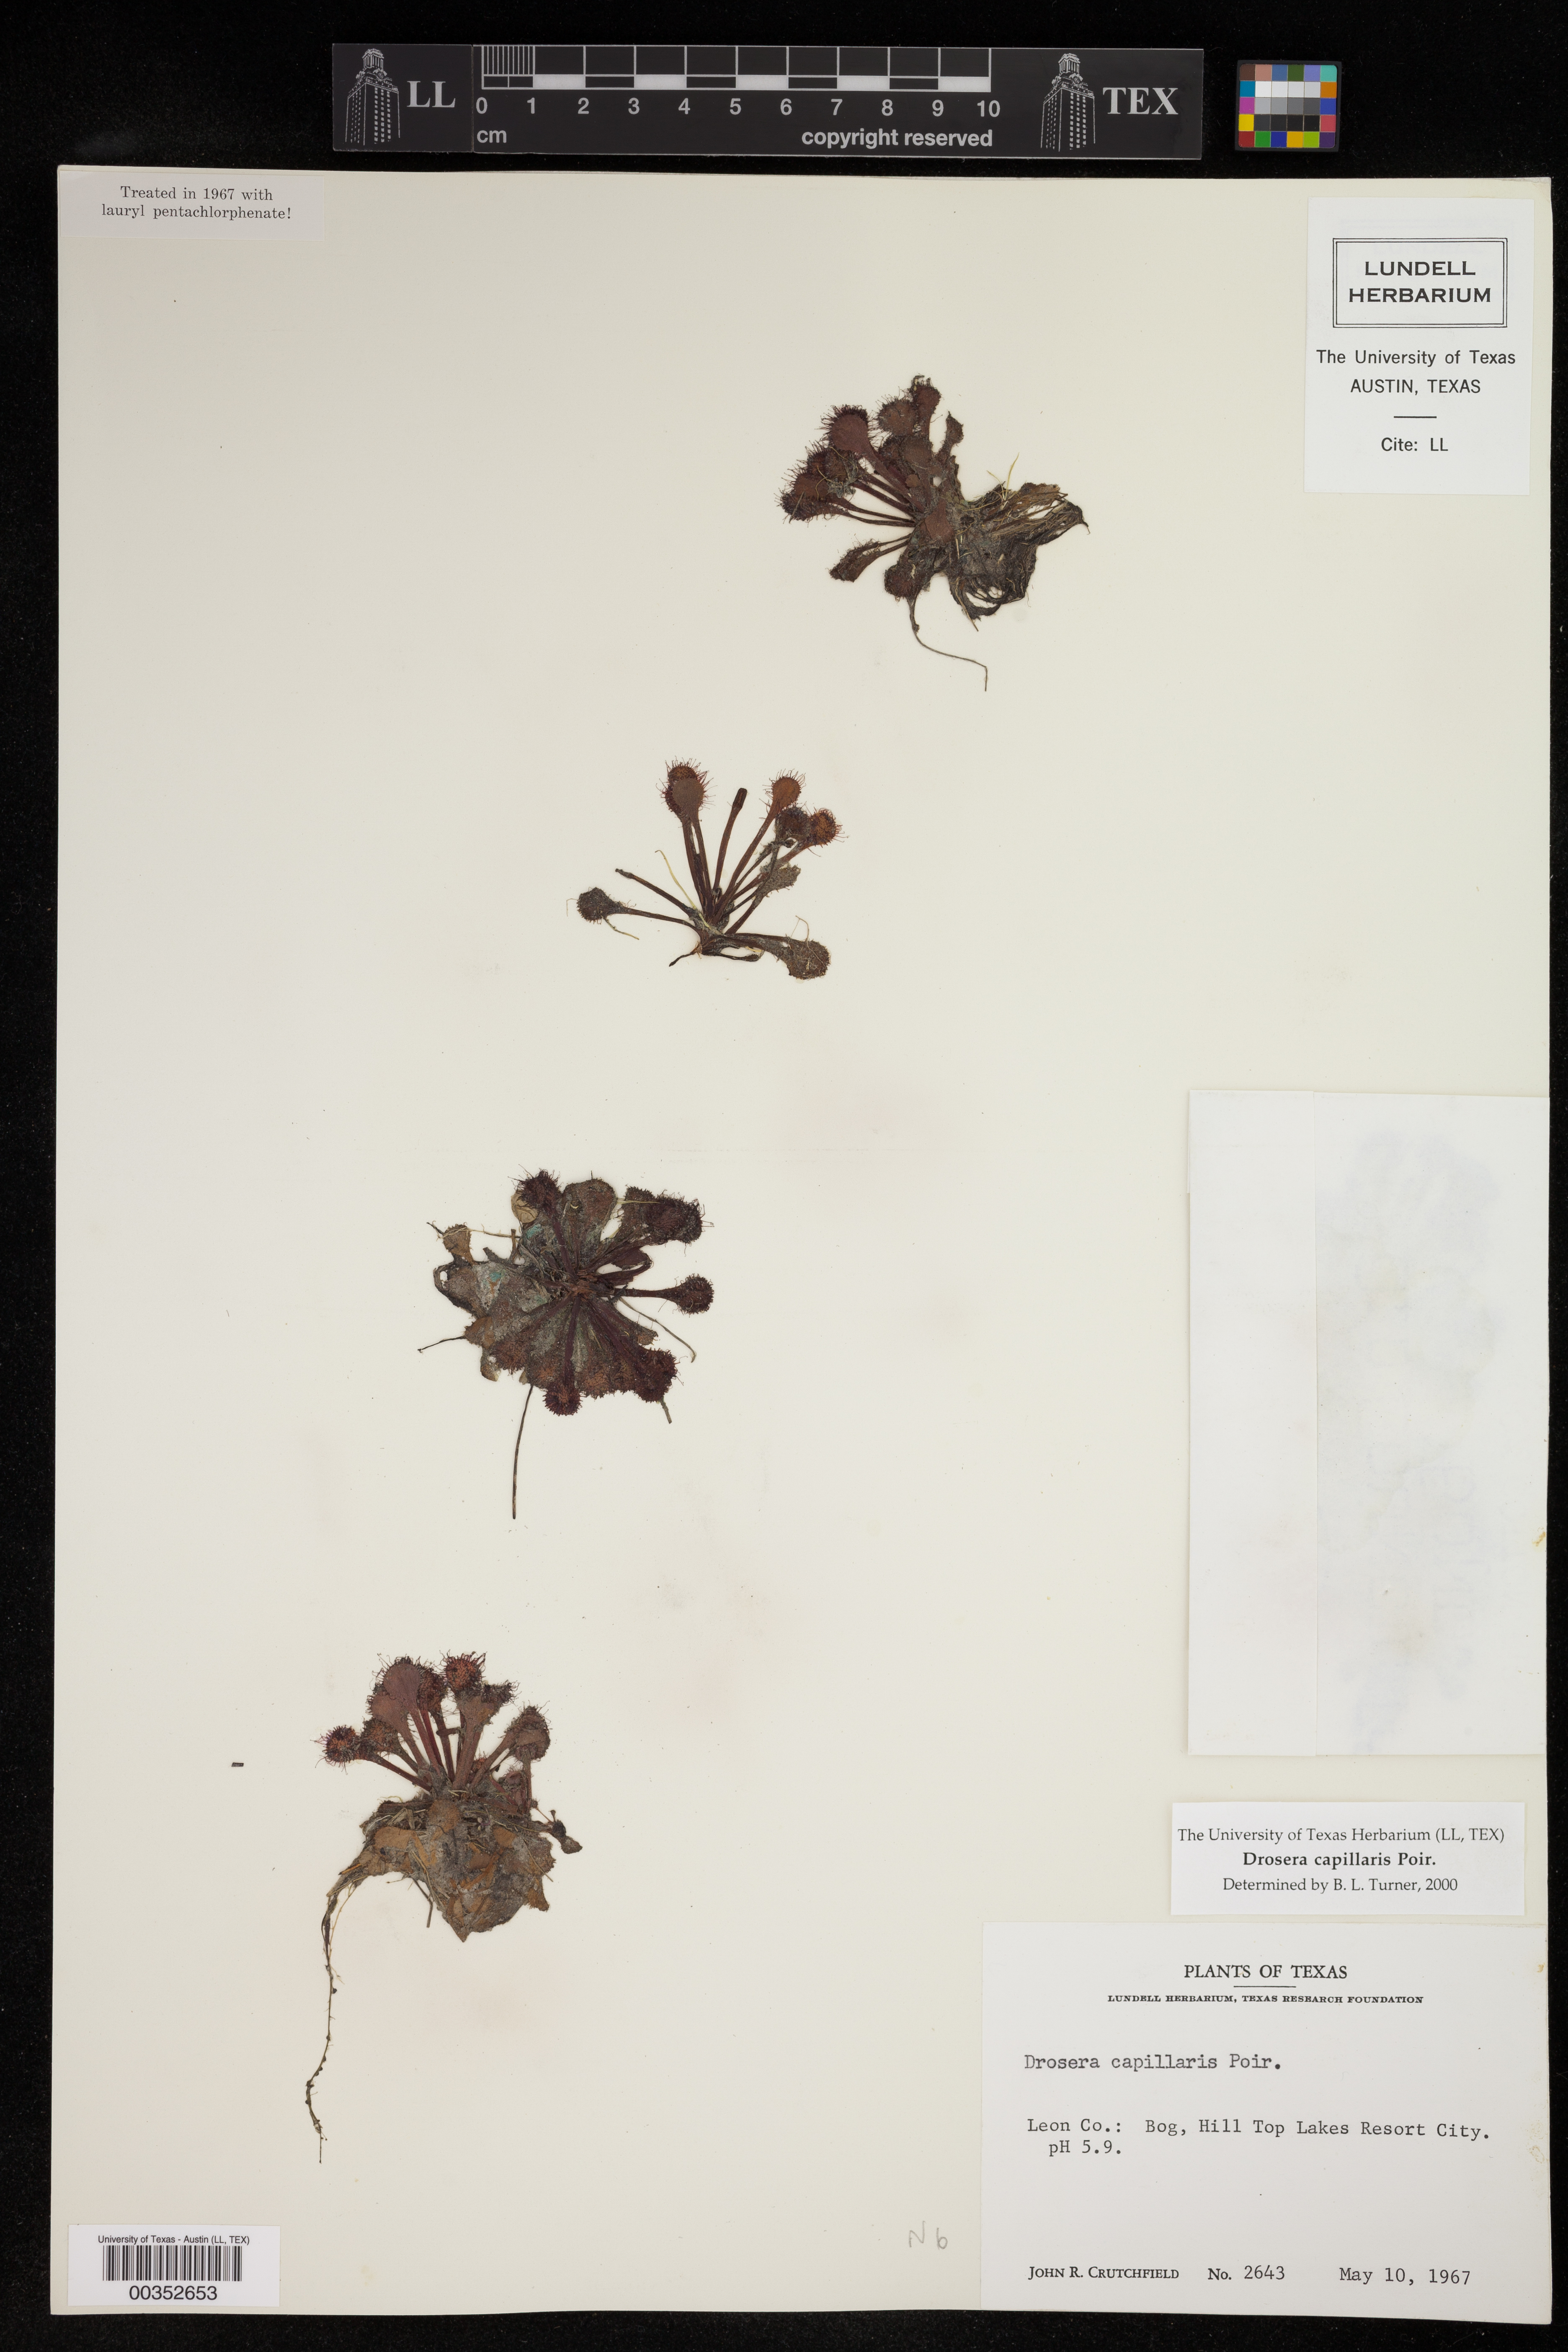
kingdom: Plantae
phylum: Tracheophyta
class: Magnoliopsida
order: Caryophyllales
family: Droseraceae
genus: Drosera
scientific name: Drosera capillaris
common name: Pink sundew
